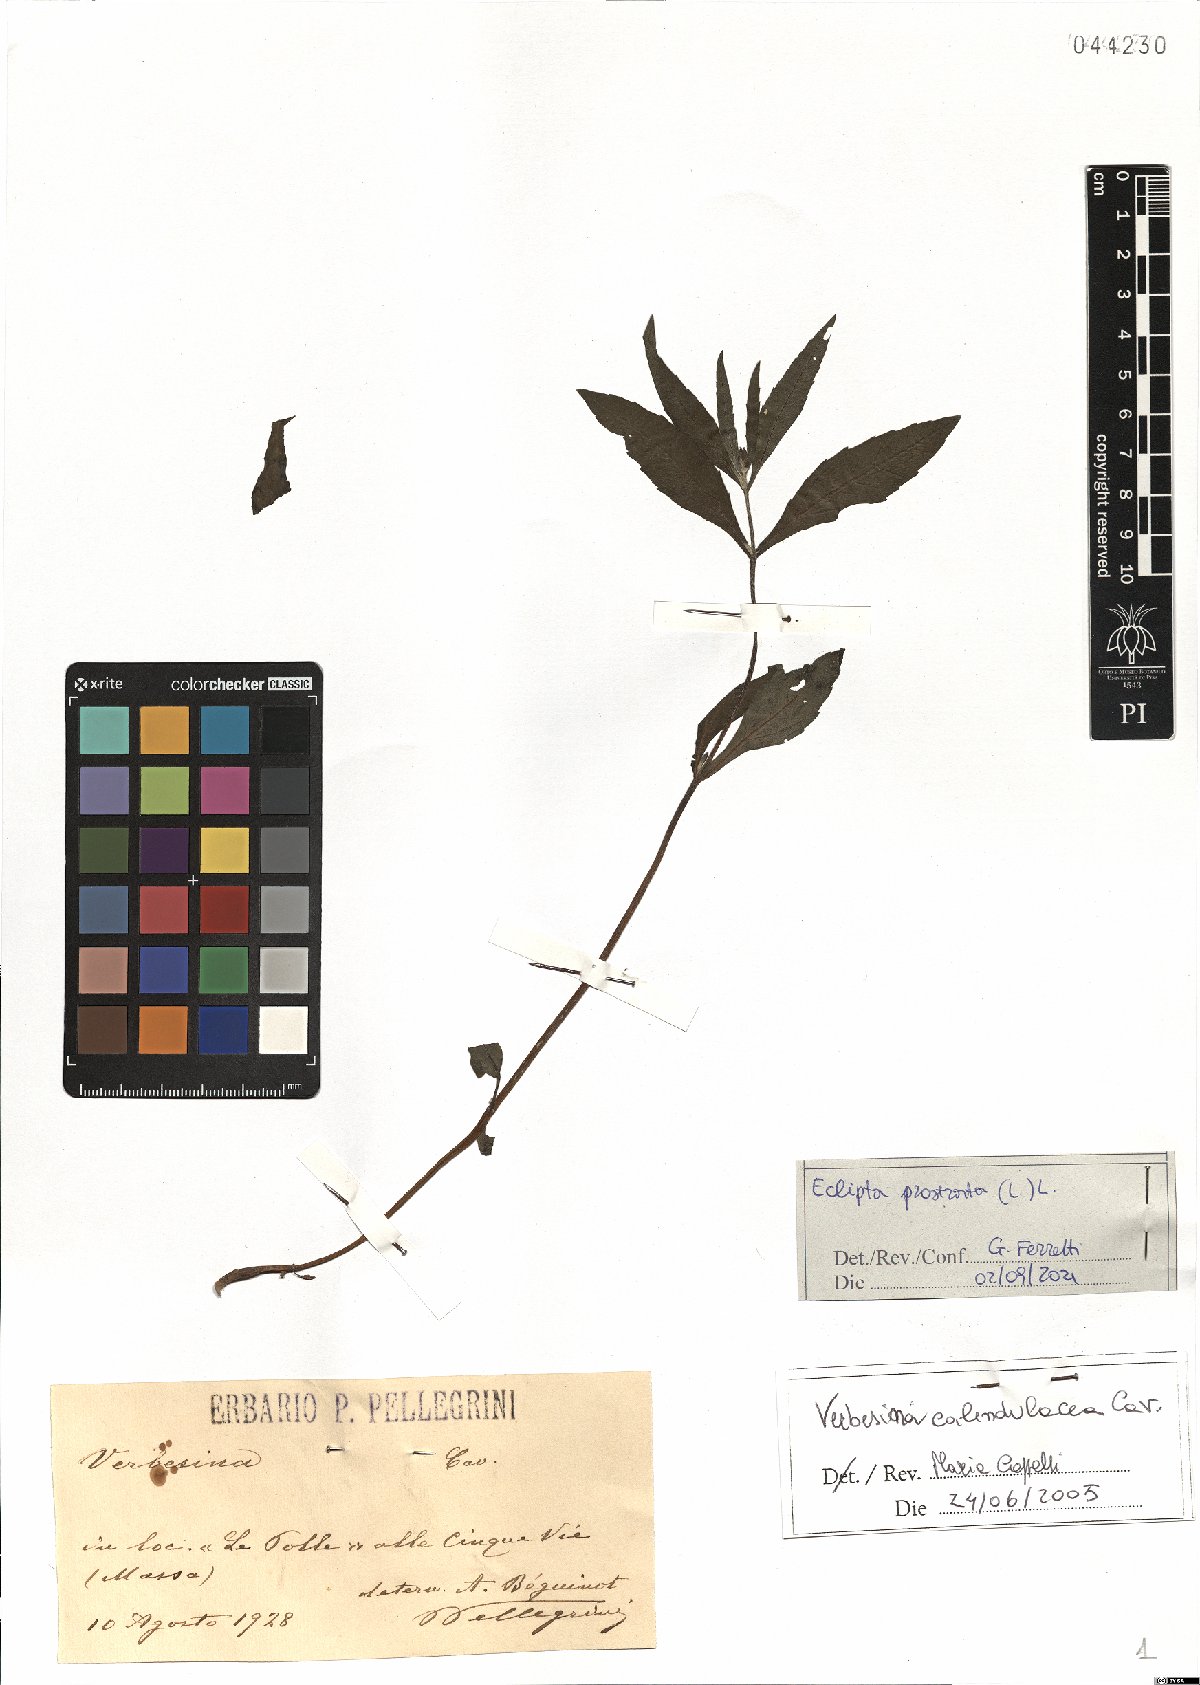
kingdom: Plantae
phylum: Tracheophyta
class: Magnoliopsida
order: Asterales
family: Asteraceae
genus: Eclipta
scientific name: Eclipta prostrata
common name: False daisy
